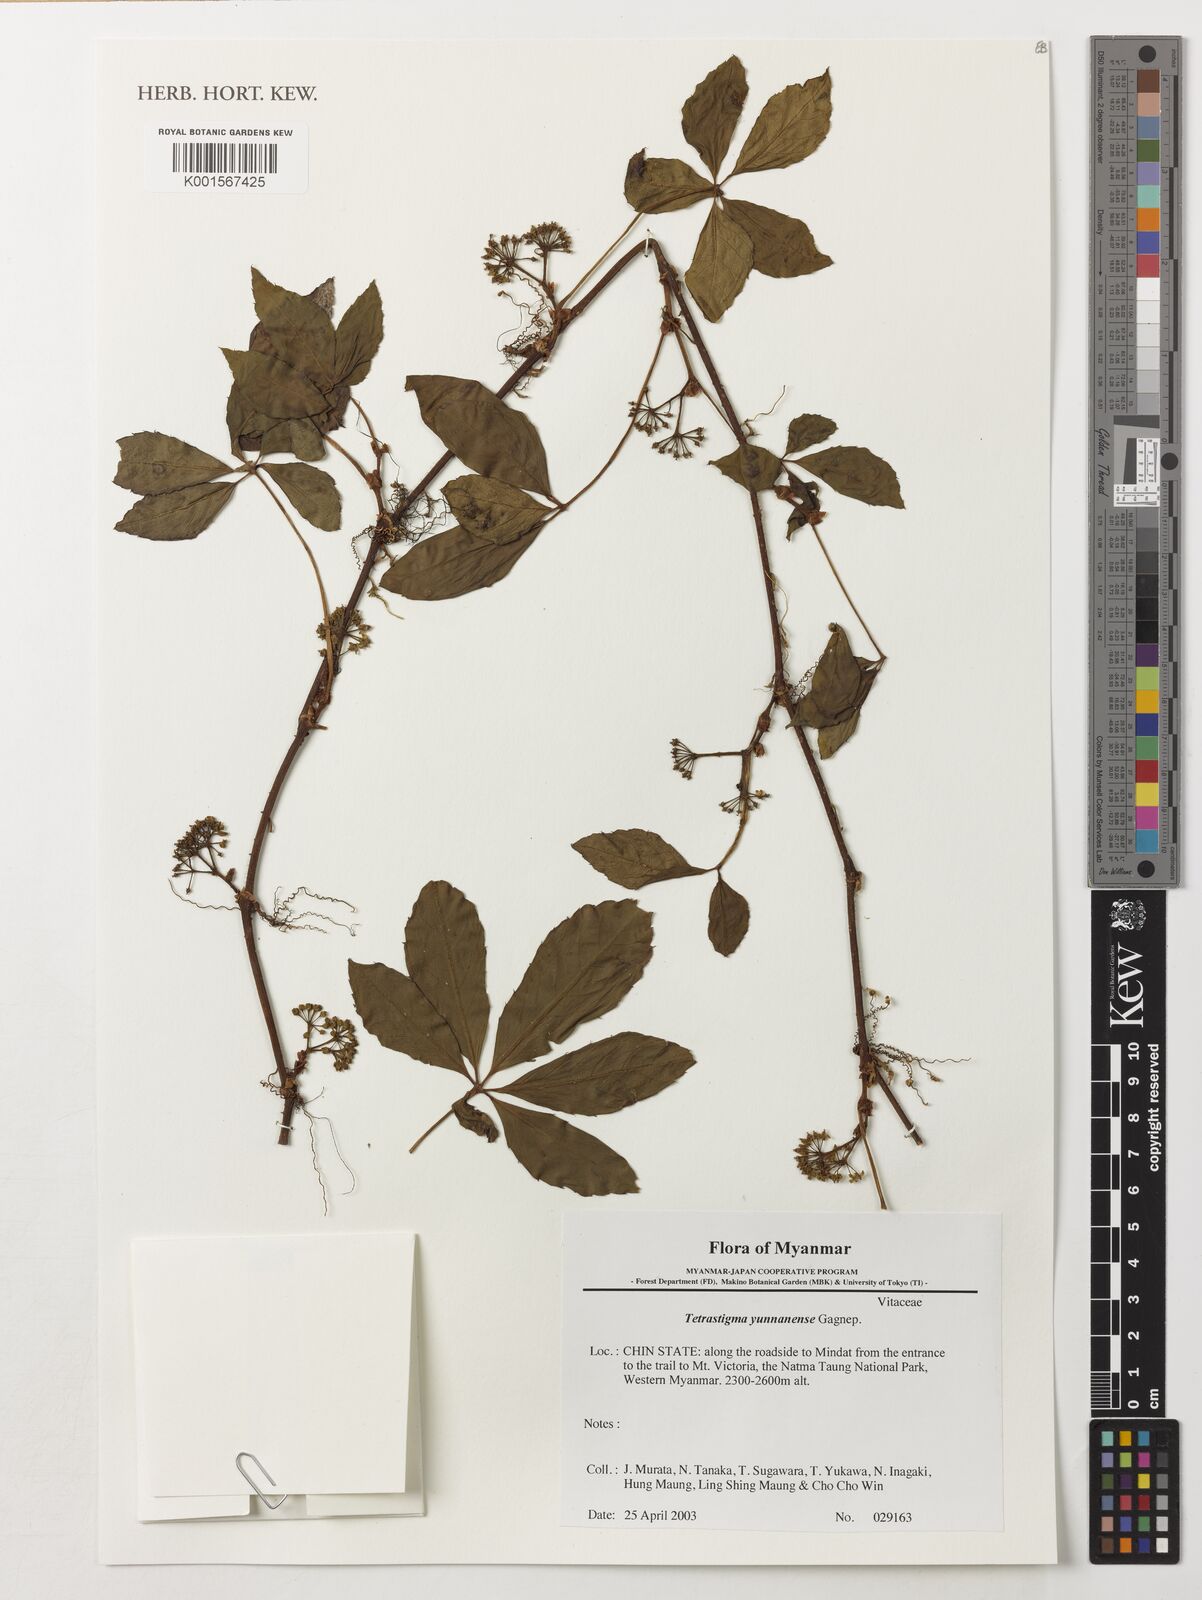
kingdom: Plantae
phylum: Tracheophyta
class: Magnoliopsida
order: Vitales
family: Vitaceae
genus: Tetrastigma
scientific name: Tetrastigma yunnanense
